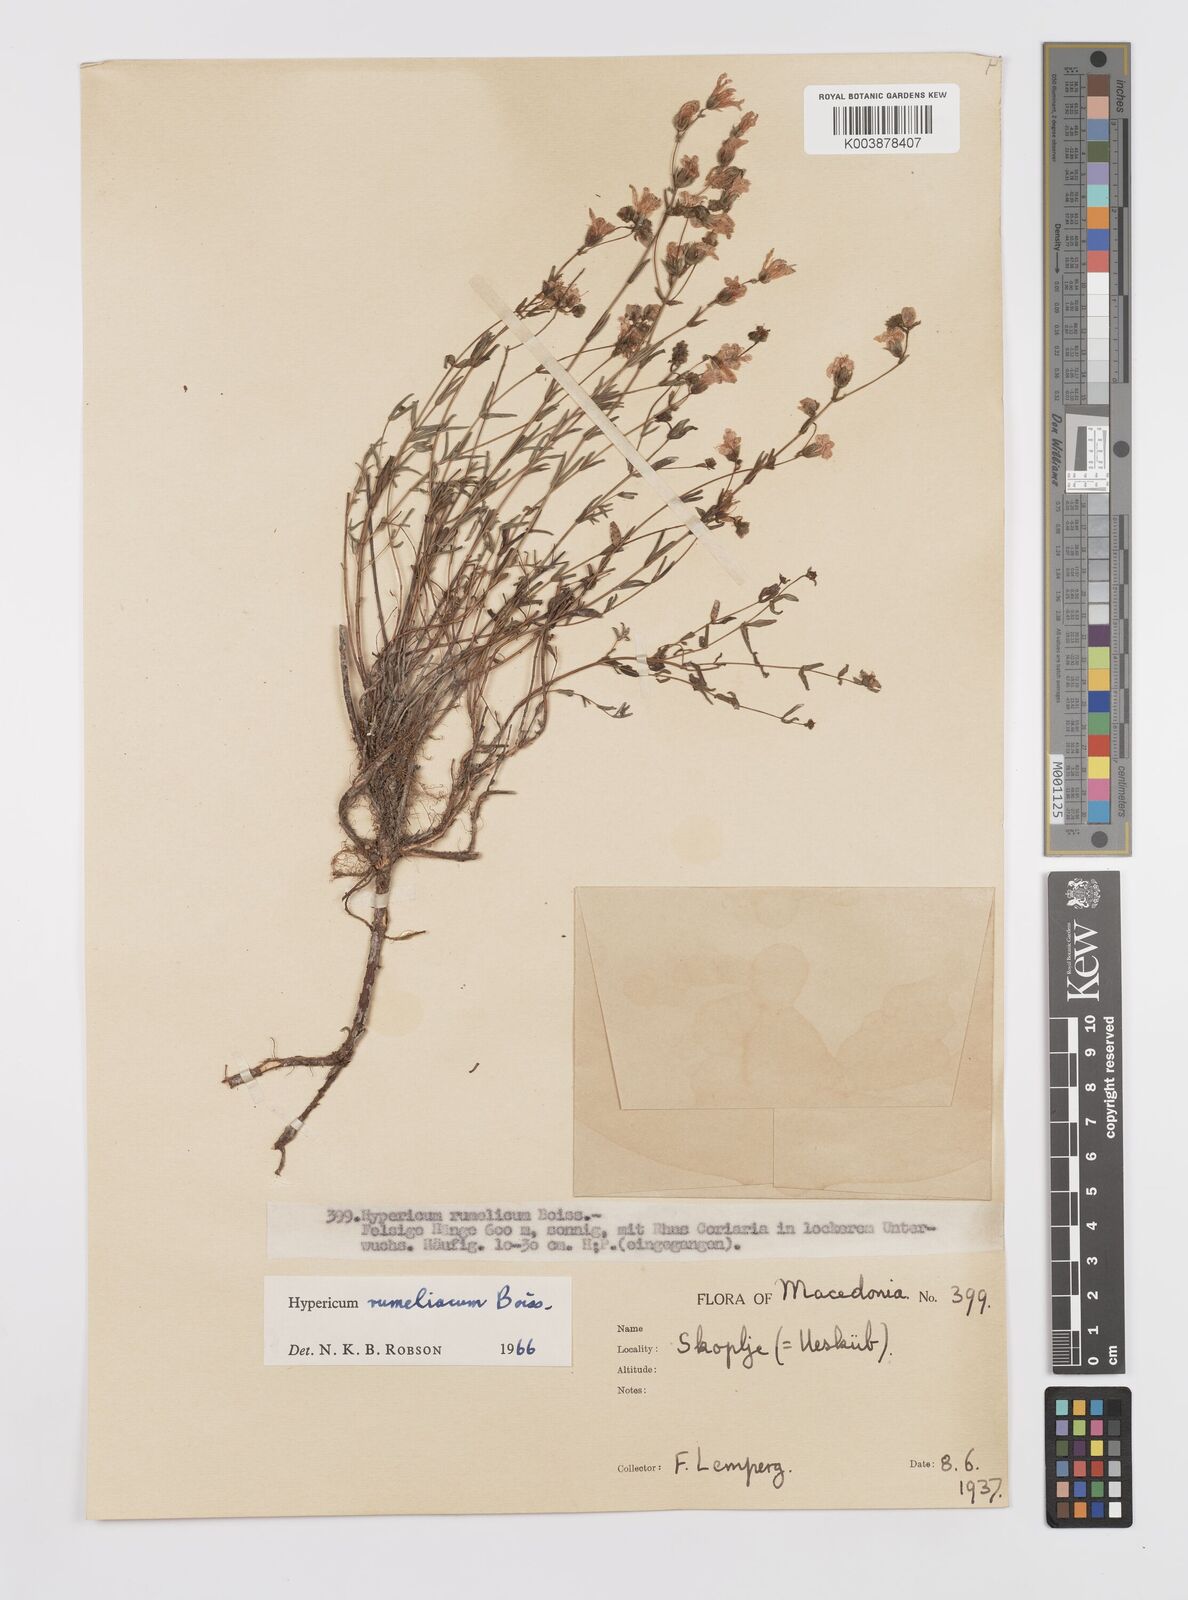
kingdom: Plantae
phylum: Tracheophyta
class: Magnoliopsida
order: Malpighiales
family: Hypericaceae
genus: Hypericum
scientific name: Hypericum rumeliacum
